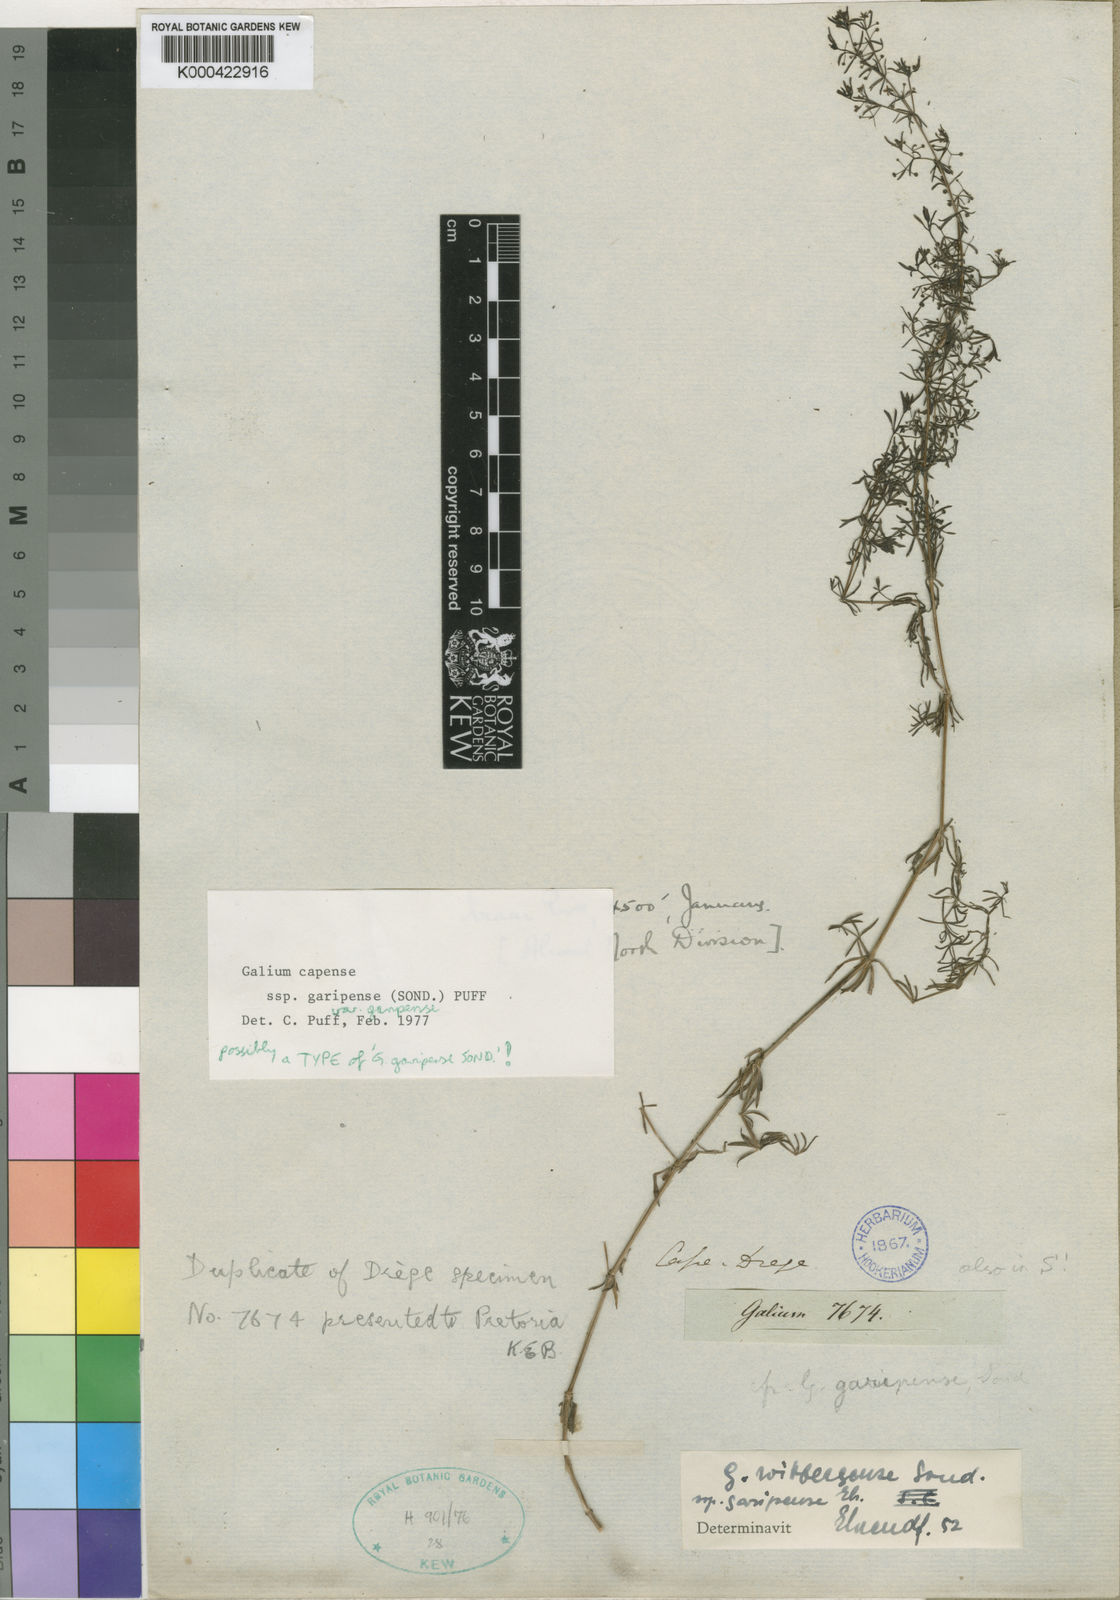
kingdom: Plantae
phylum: Tracheophyta
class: Magnoliopsida
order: Gentianales
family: Rubiaceae
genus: Galium
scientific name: Galium capense
